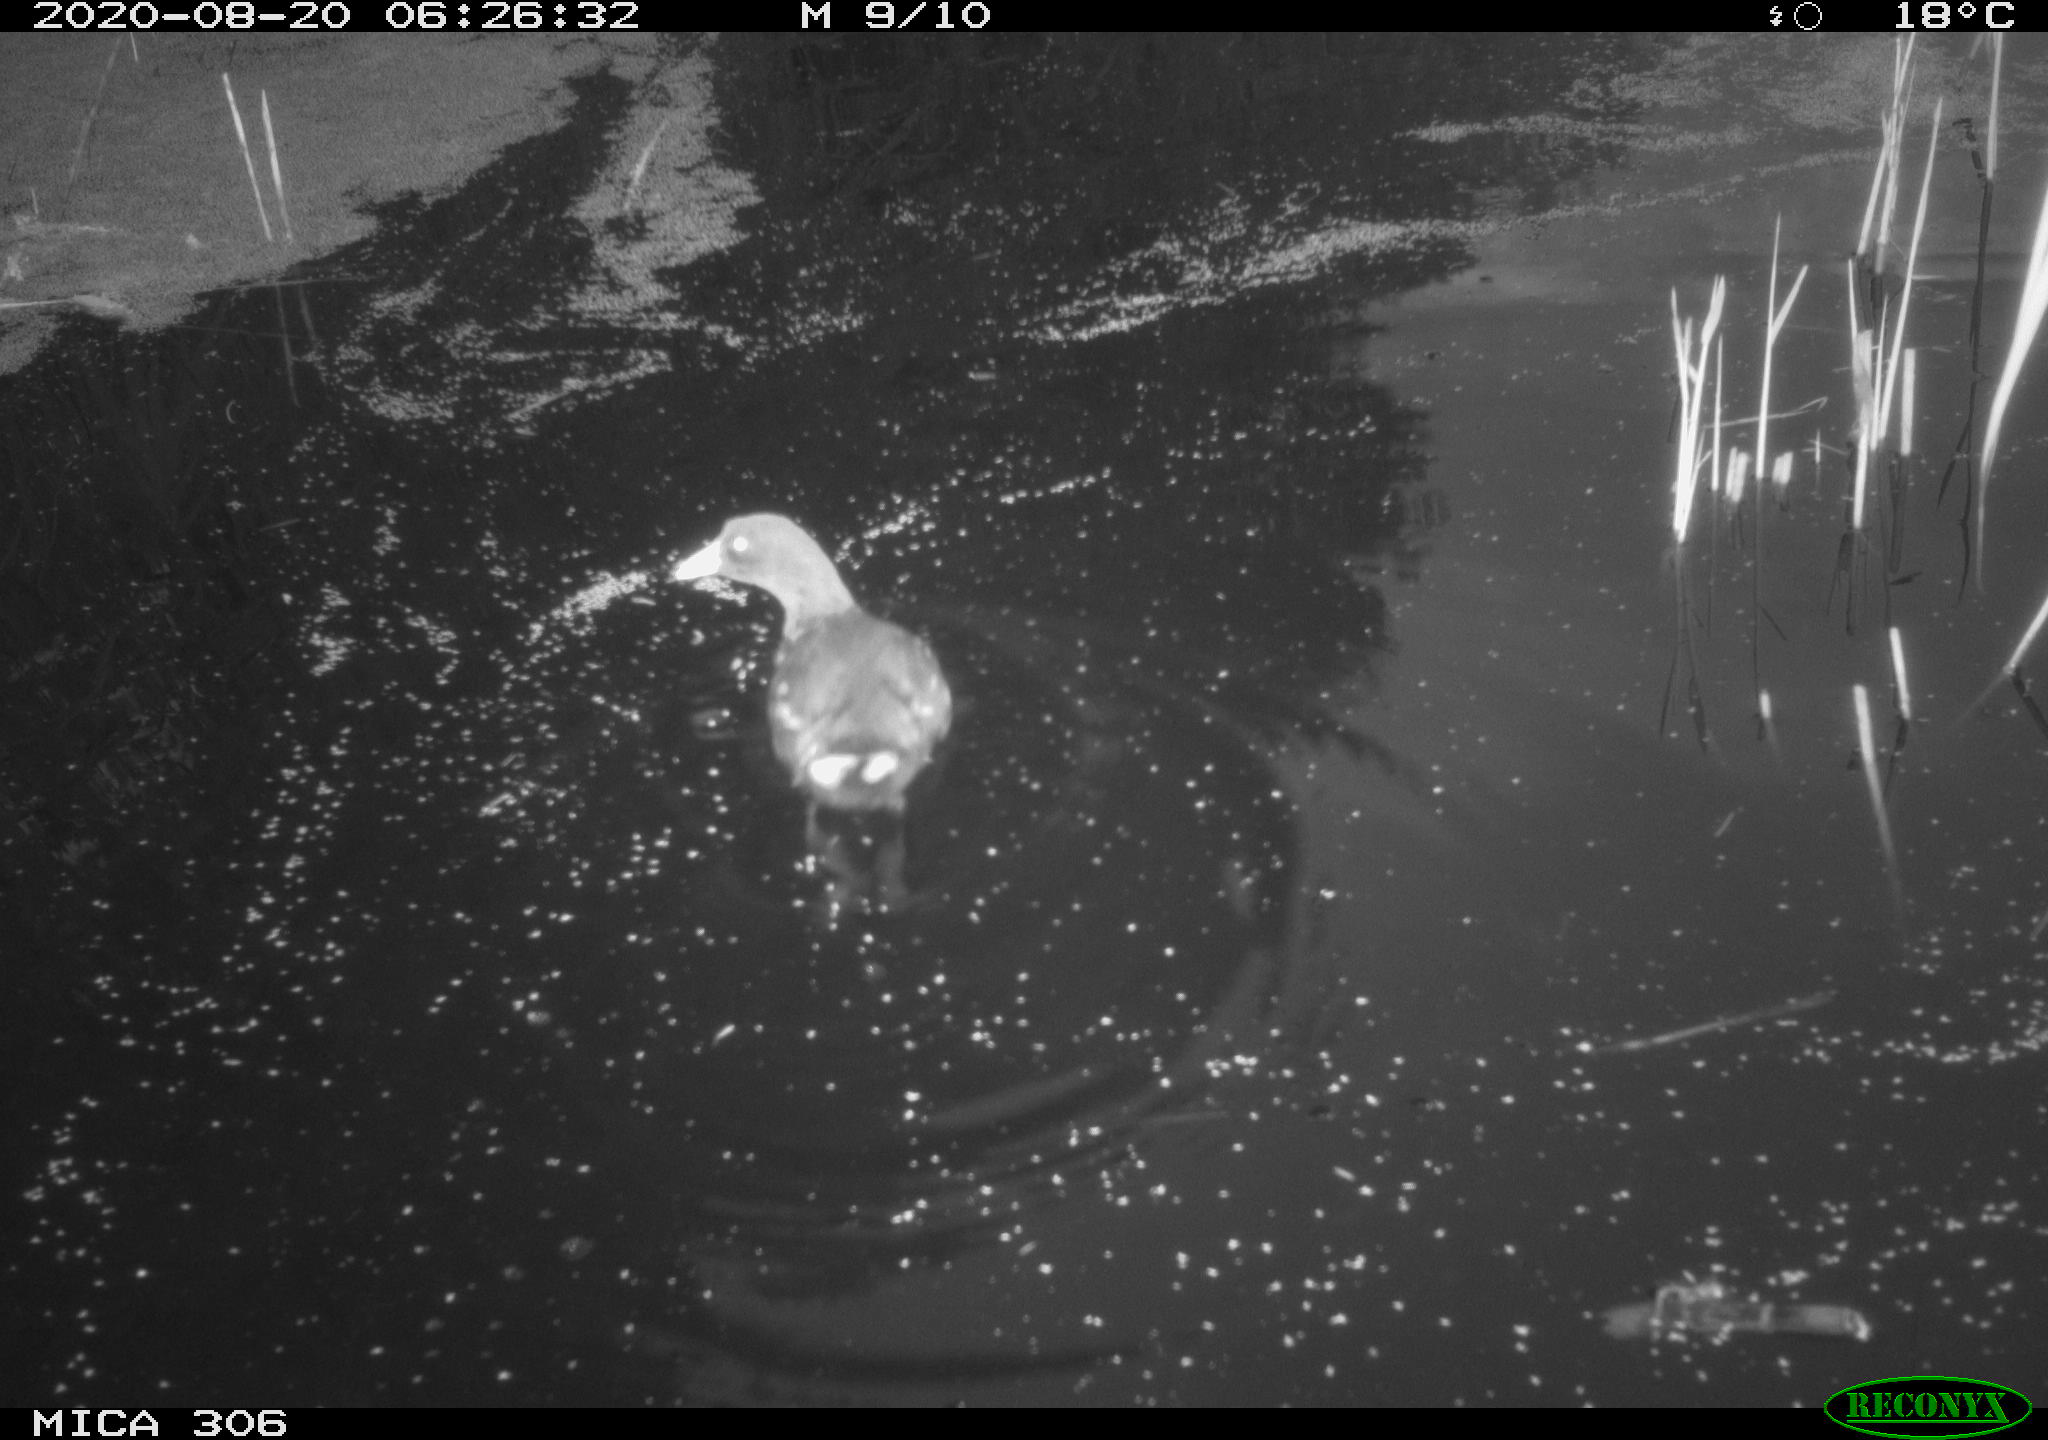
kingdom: Animalia
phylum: Chordata
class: Aves
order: Gruiformes
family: Rallidae
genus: Fulica
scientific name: Fulica atra
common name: Eurasian coot
